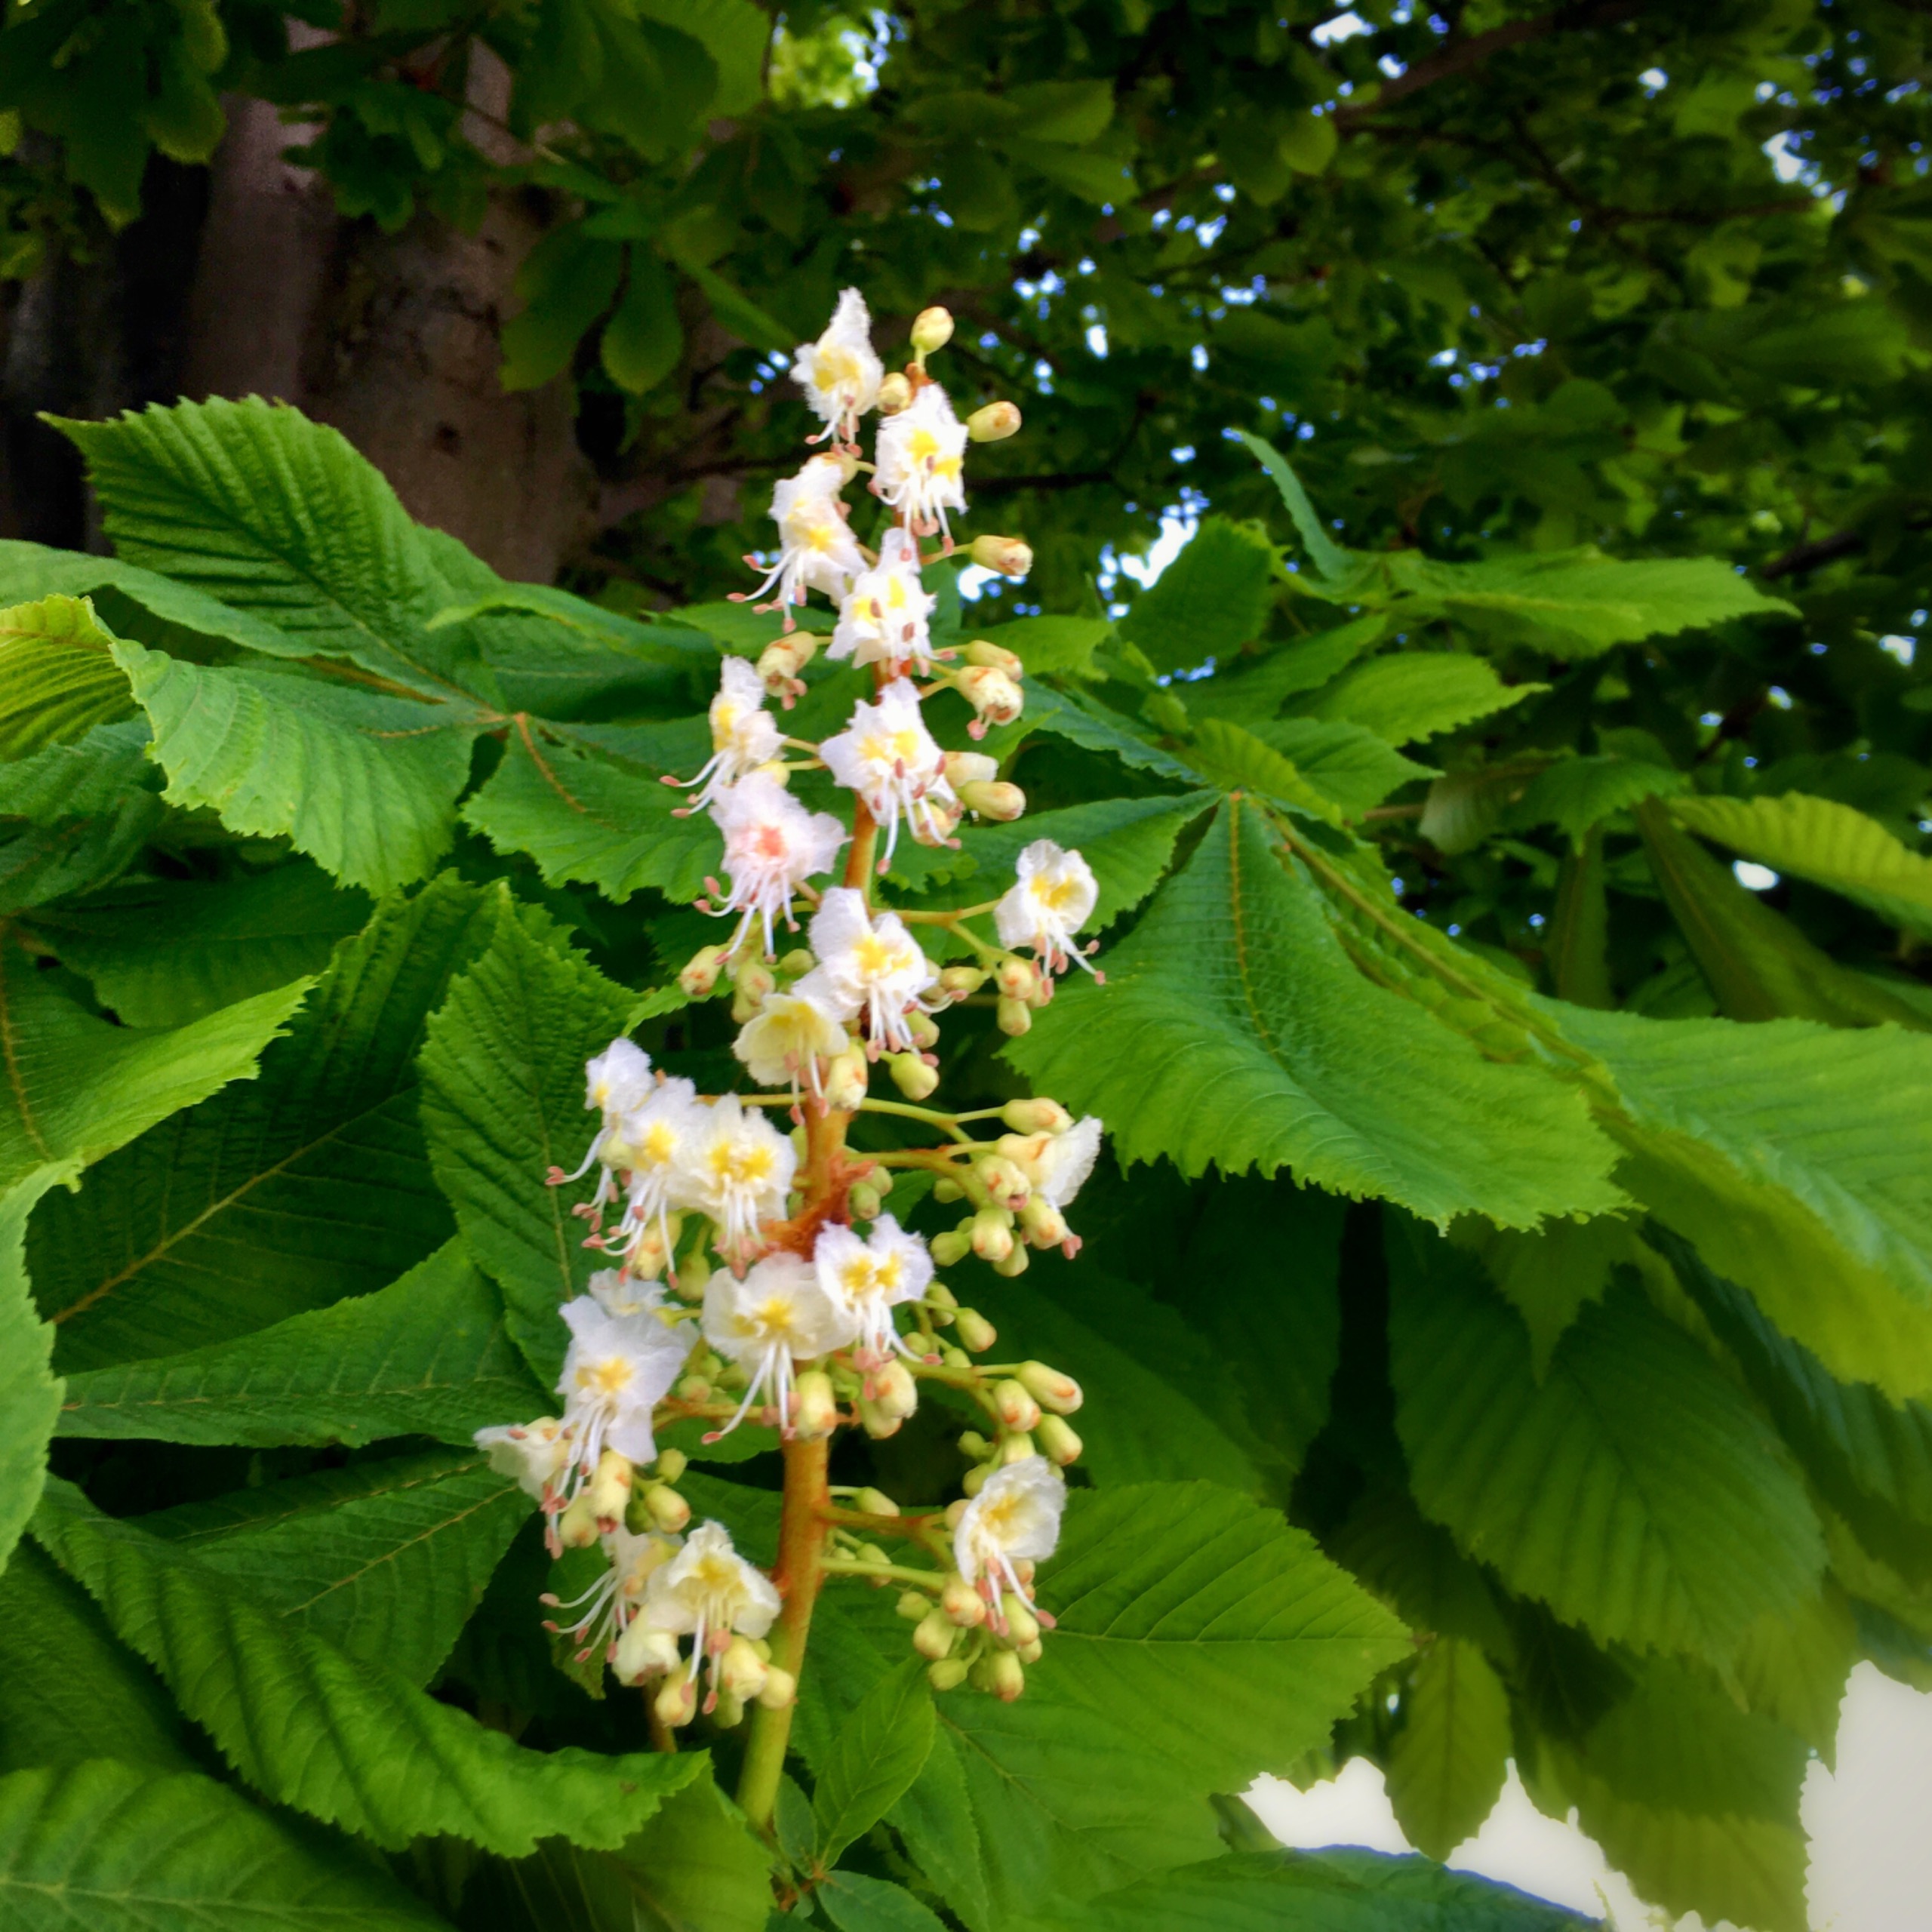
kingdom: Plantae
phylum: Tracheophyta
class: Magnoliopsida
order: Sapindales
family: Sapindaceae
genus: Aesculus
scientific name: Aesculus hippocastanum
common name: Hestekastanie
